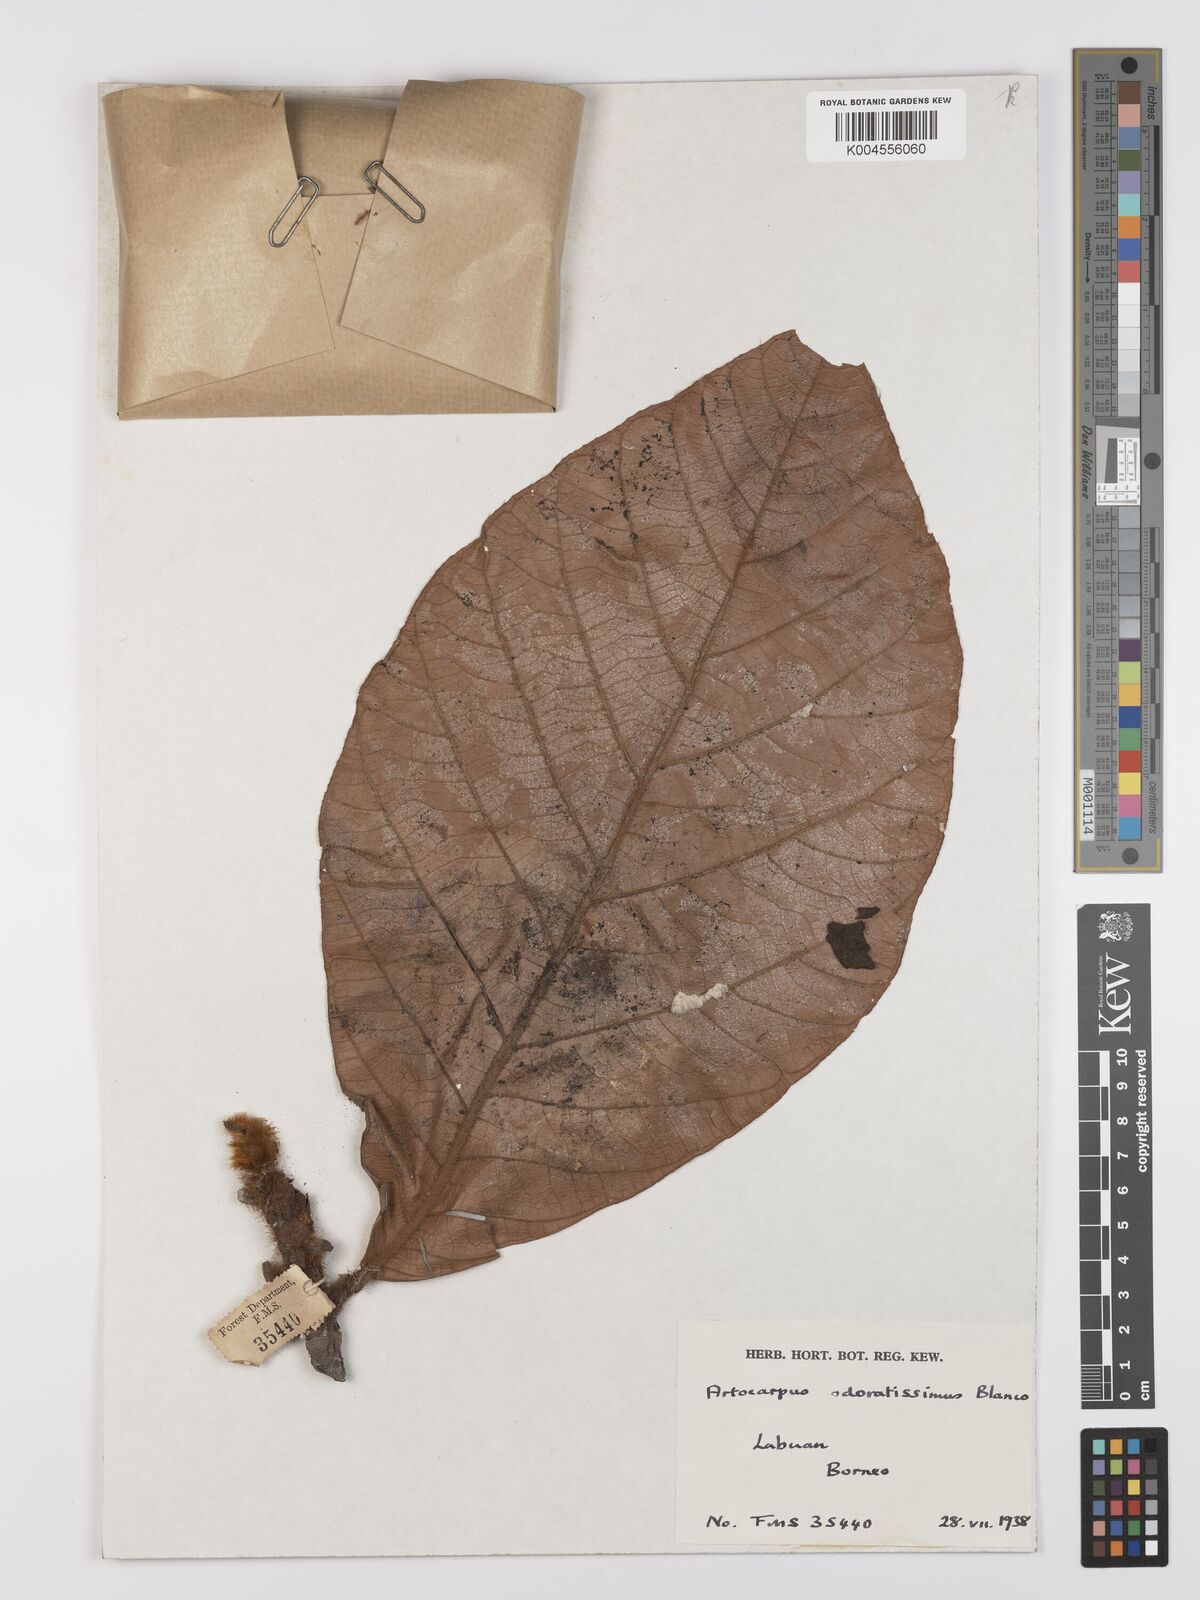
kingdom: Plantae
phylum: Tracheophyta
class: Magnoliopsida
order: Rosales
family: Moraceae
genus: Artocarpus
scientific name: Artocarpus odoratissimus
